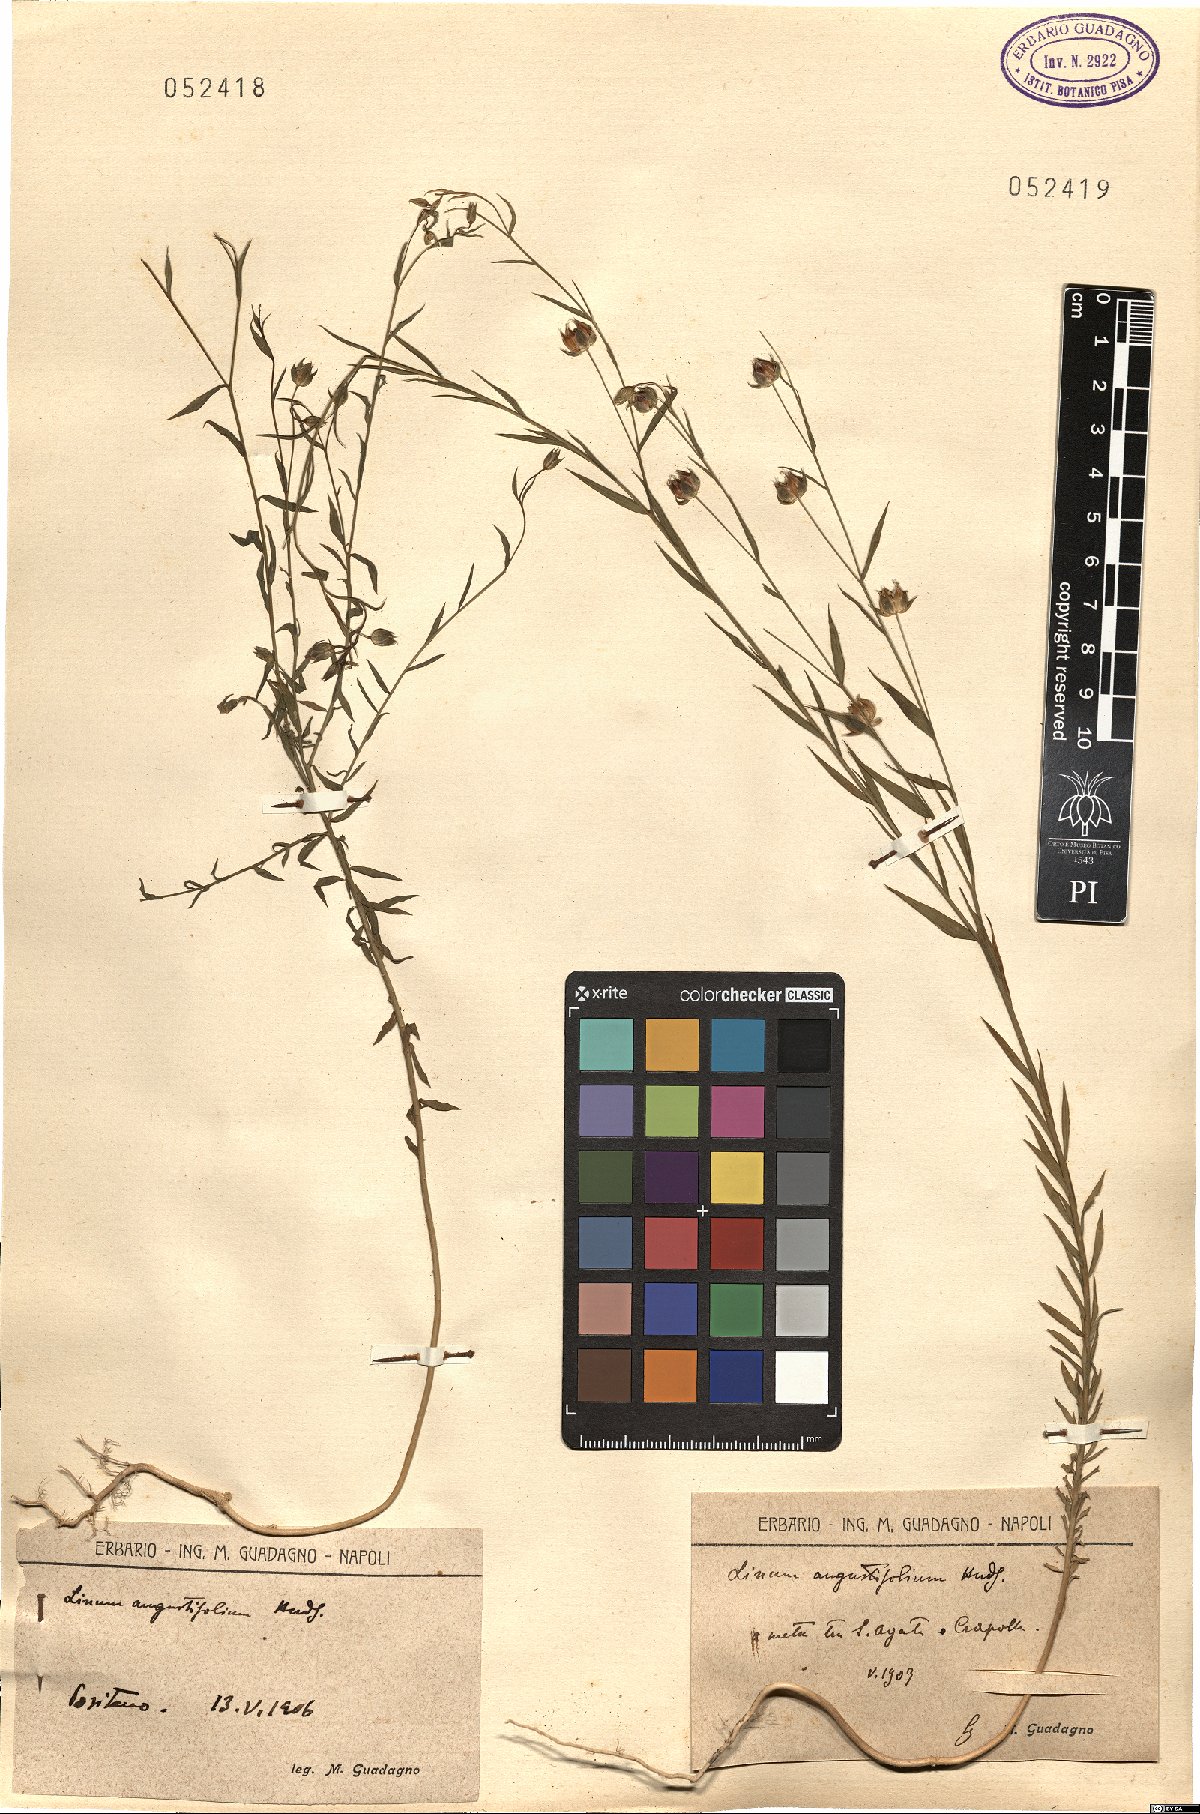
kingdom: Plantae
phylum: Tracheophyta
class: Magnoliopsida
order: Malpighiales
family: Linaceae
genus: Linum
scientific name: Linum bienne
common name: Pale flax
